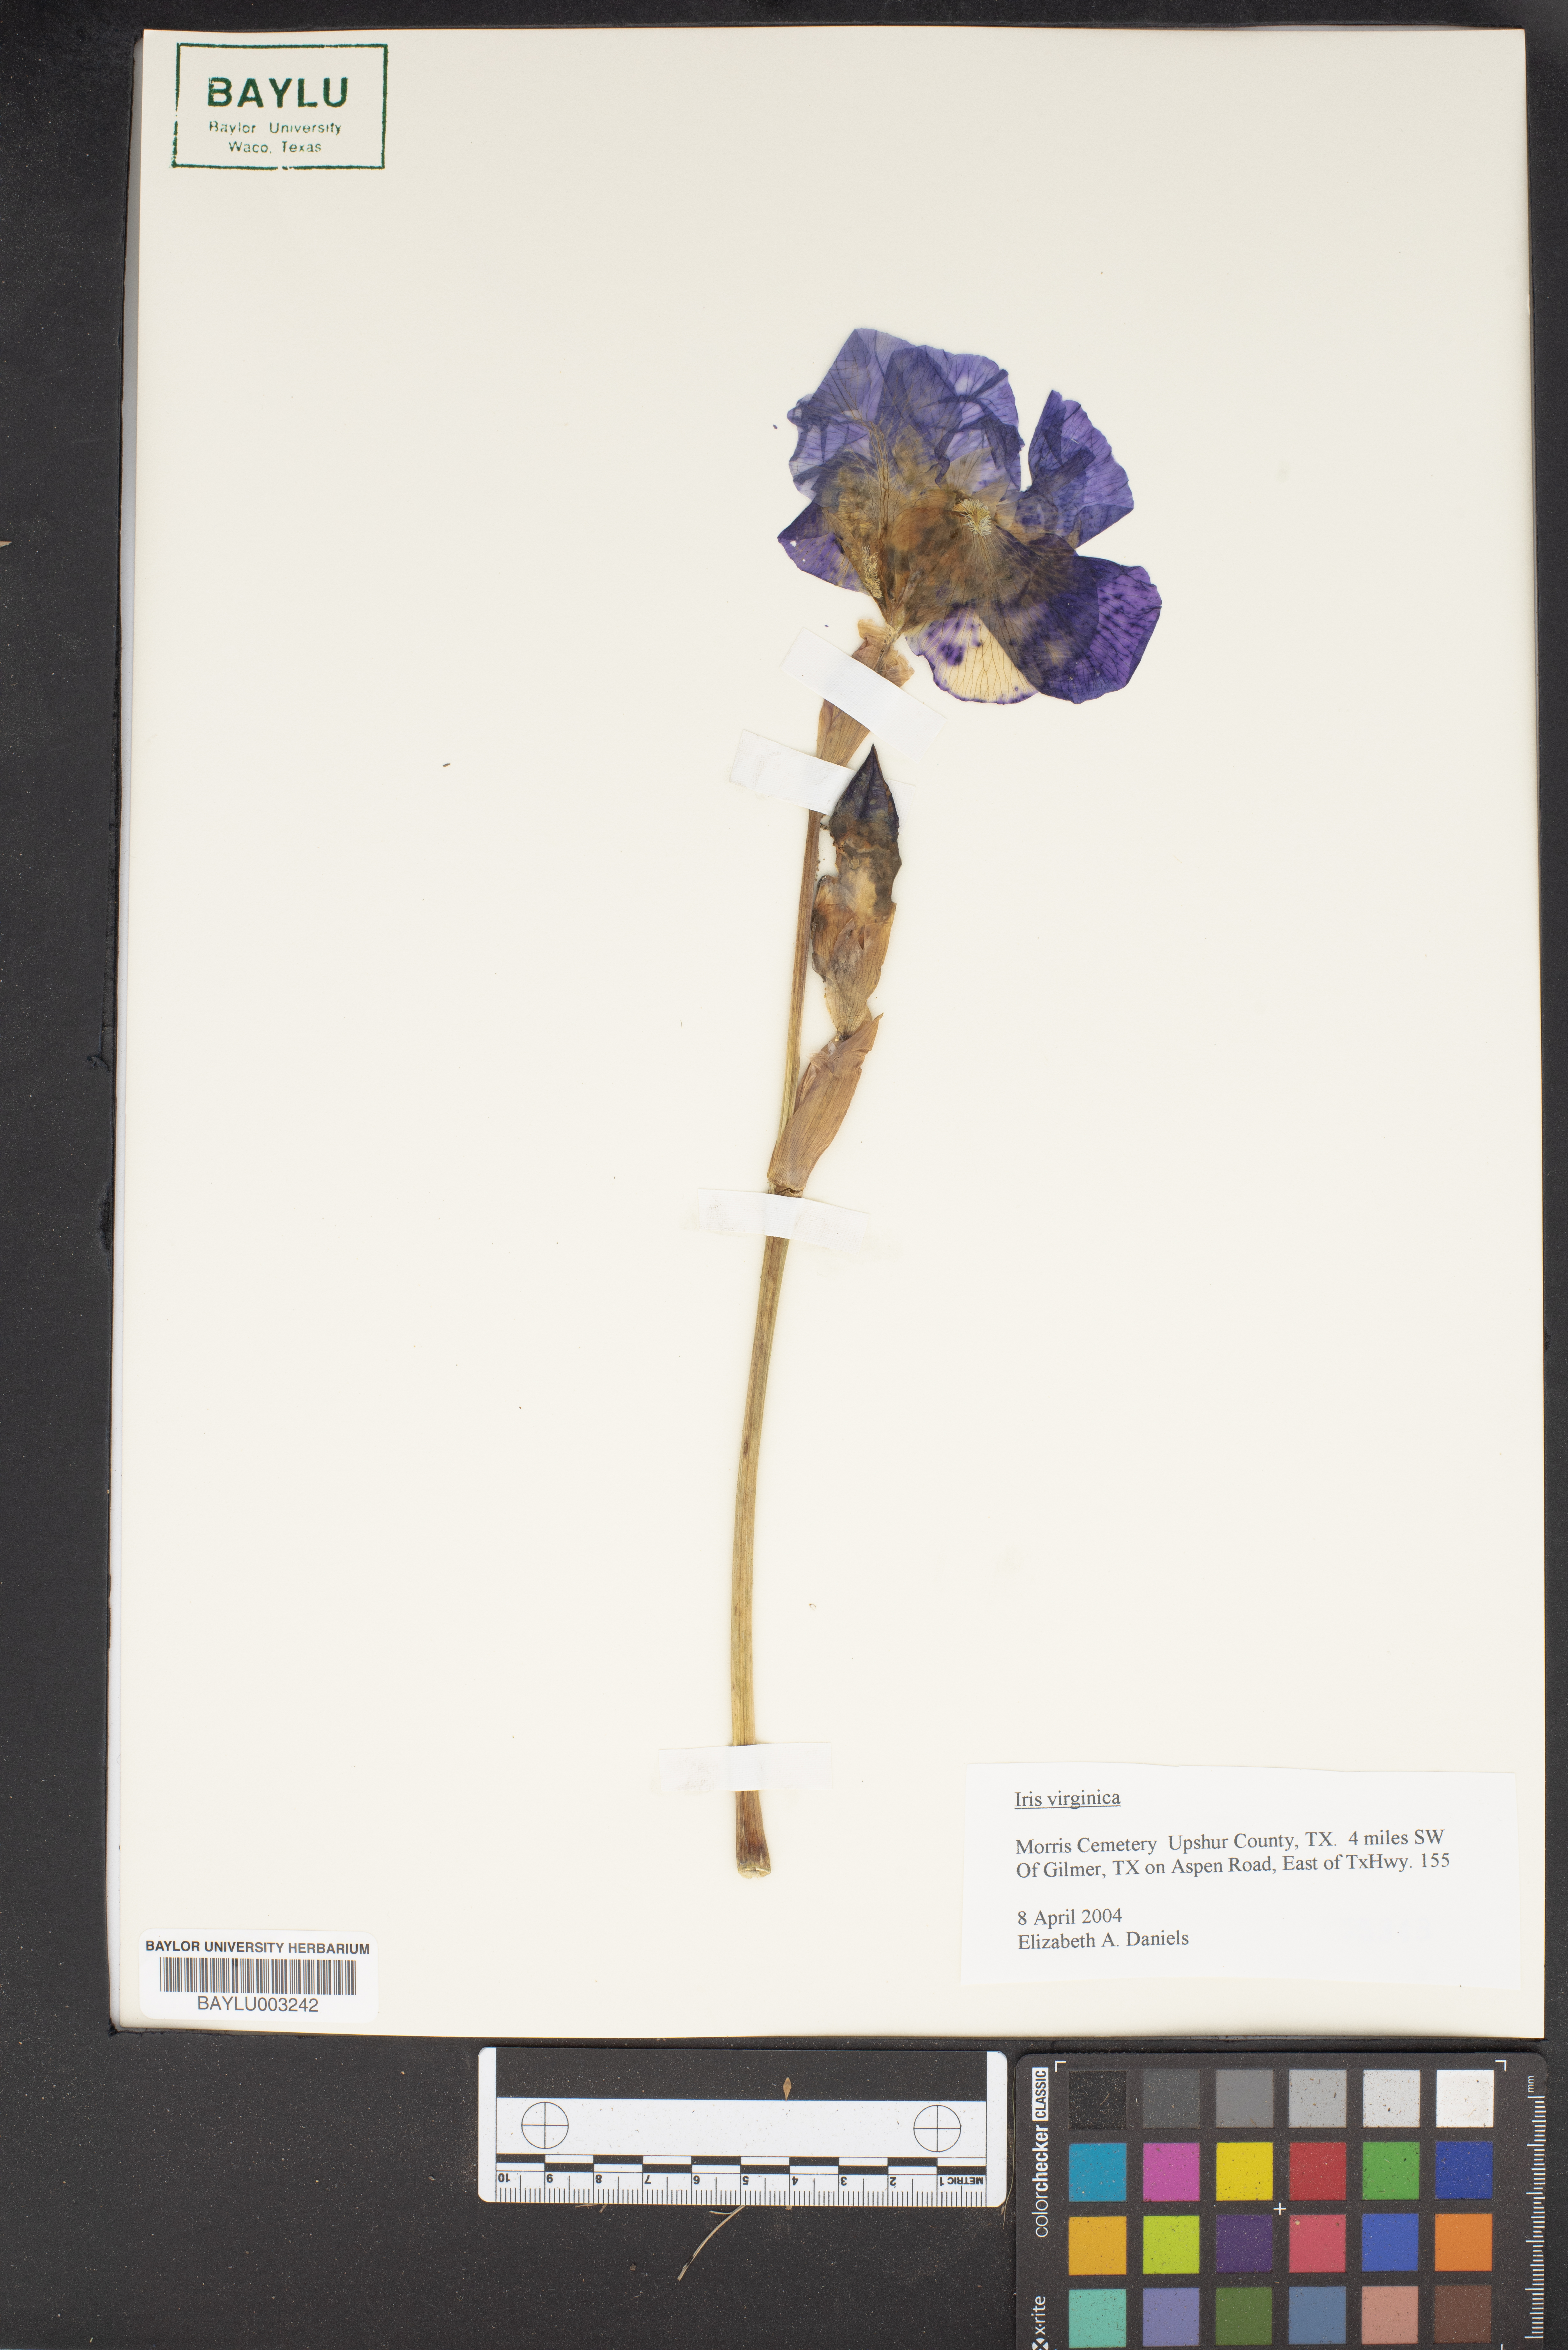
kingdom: Plantae
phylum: Tracheophyta
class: Liliopsida
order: Asparagales
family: Iridaceae
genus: Iris
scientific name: Iris virginica
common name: Southern blue flag
